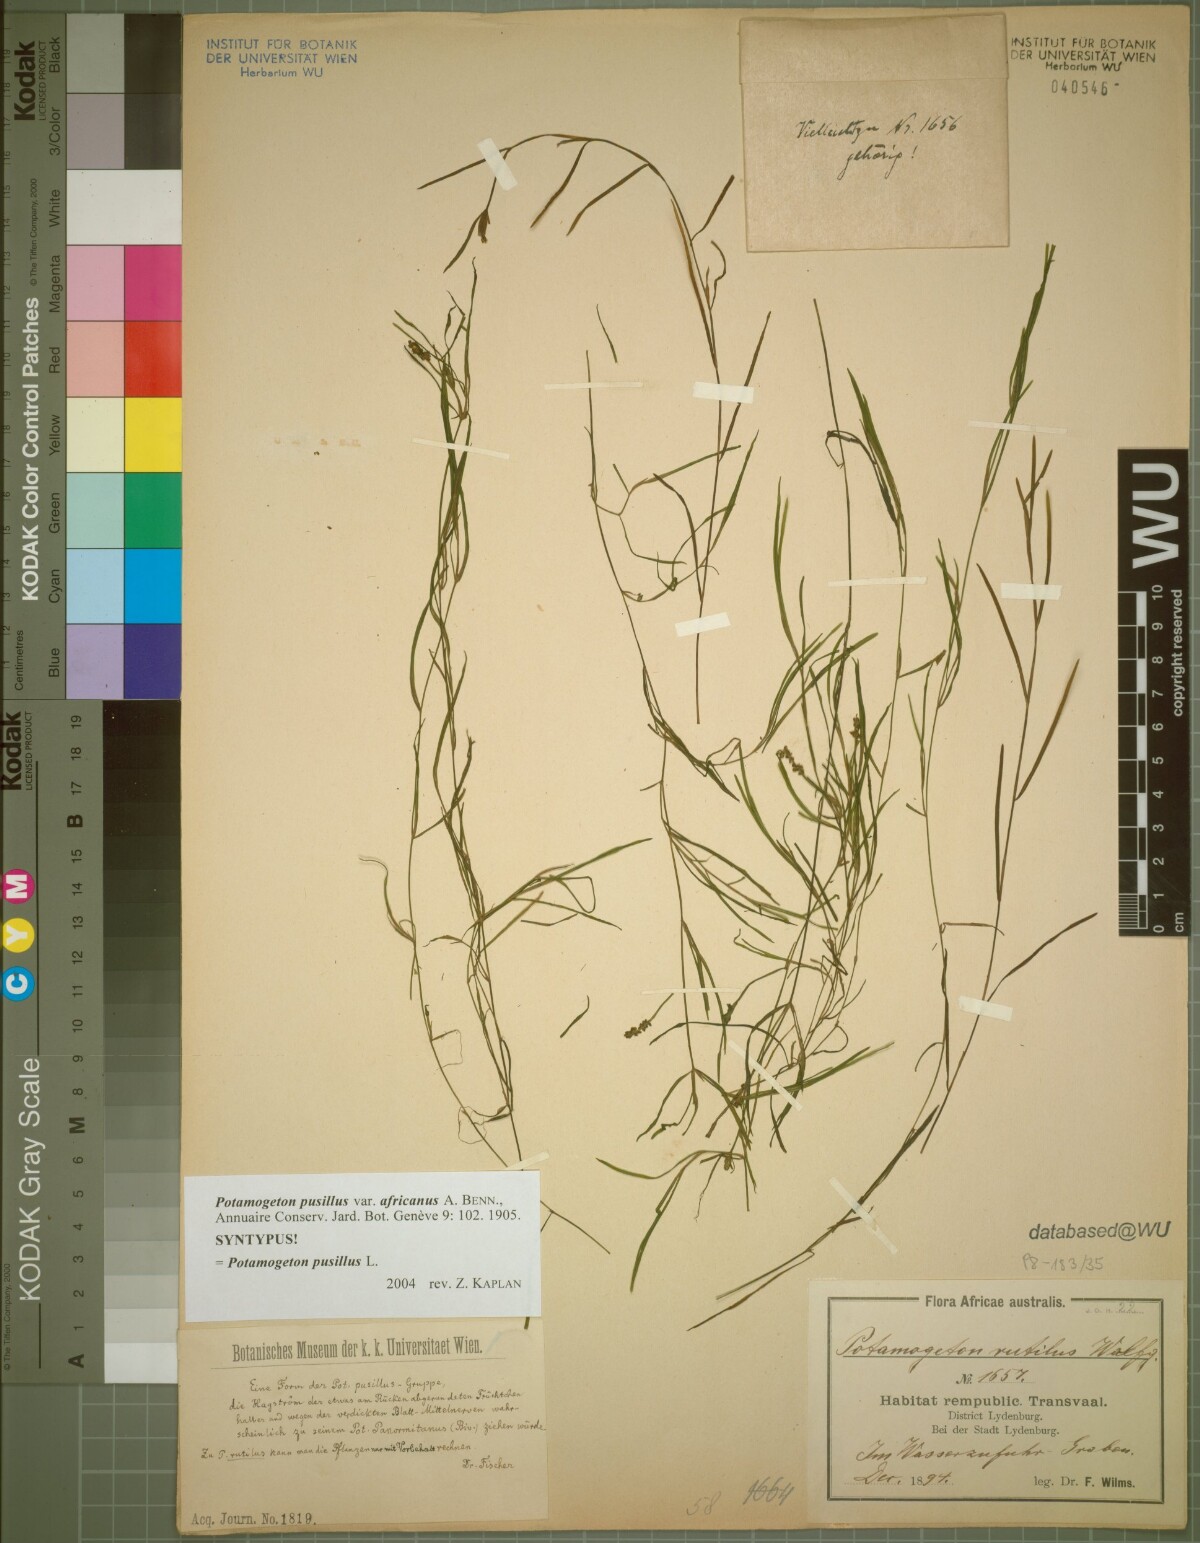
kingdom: Plantae
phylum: Tracheophyta
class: Liliopsida
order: Alismatales
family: Potamogetonaceae
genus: Potamogeton
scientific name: Potamogeton pusillus
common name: Lesser pondweed
